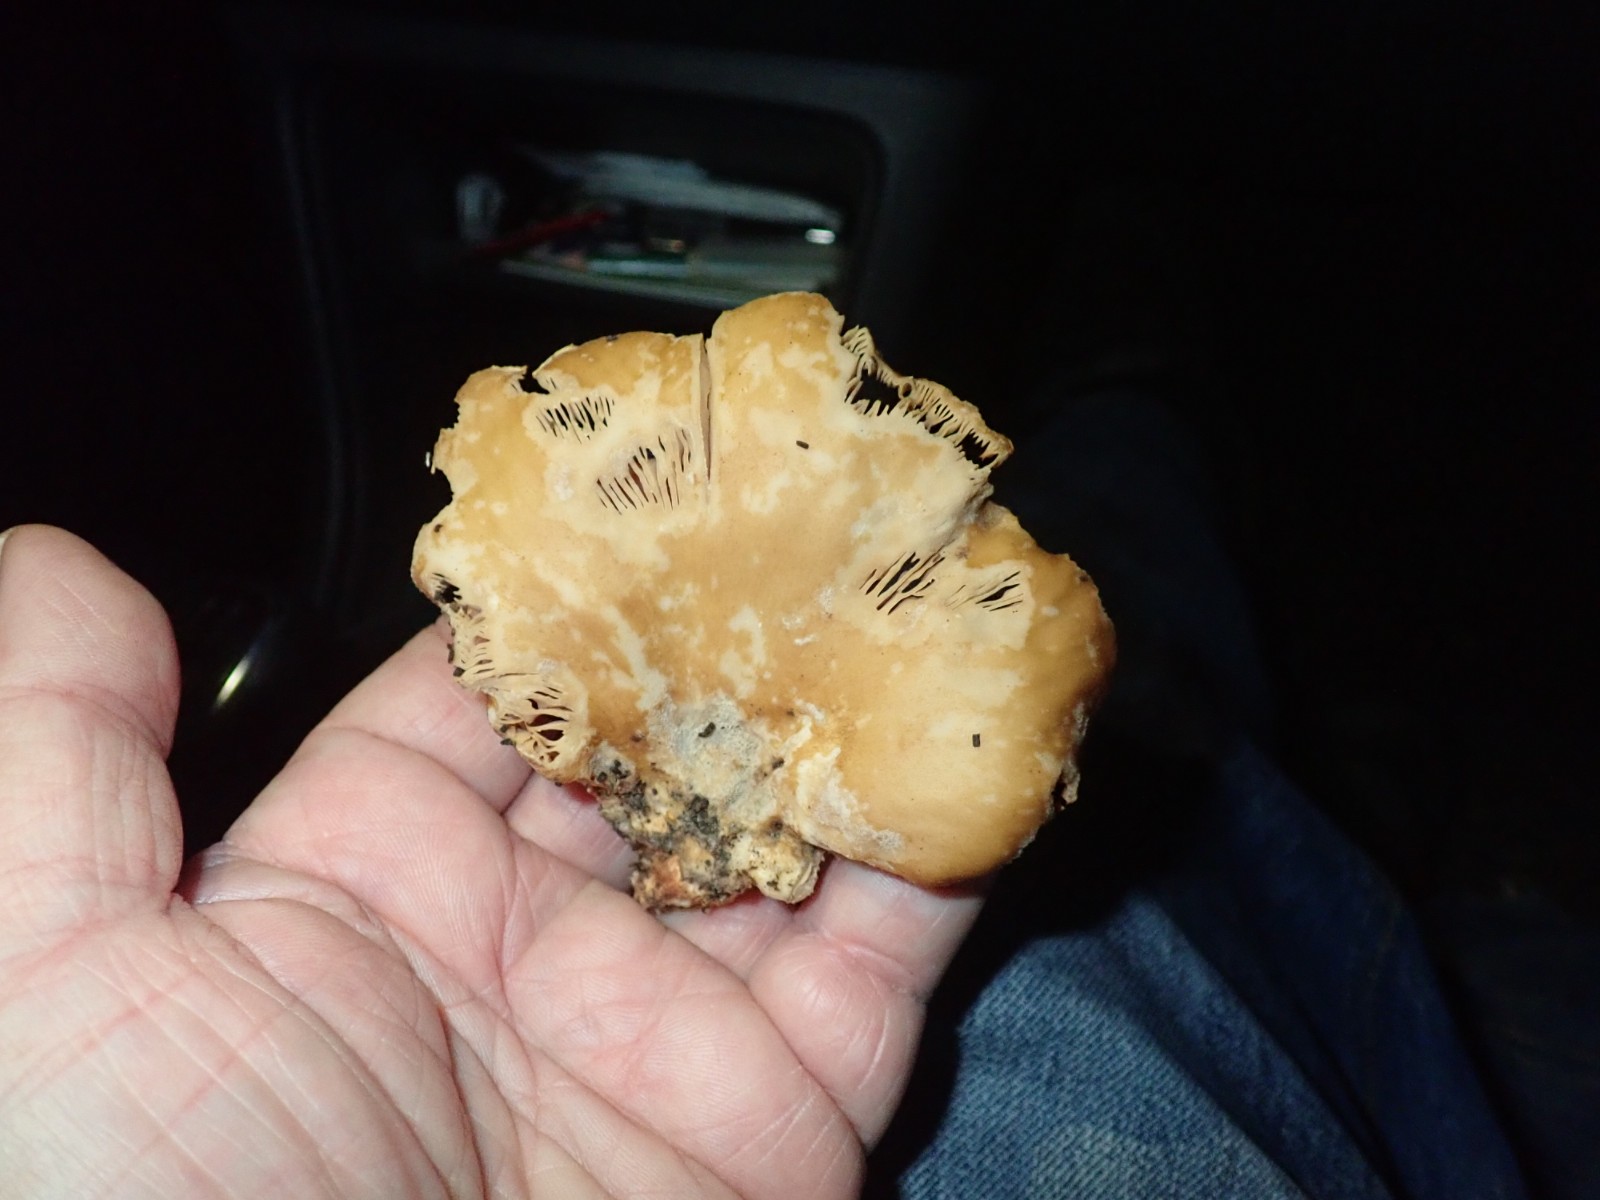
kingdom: Fungi
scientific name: Fungi
